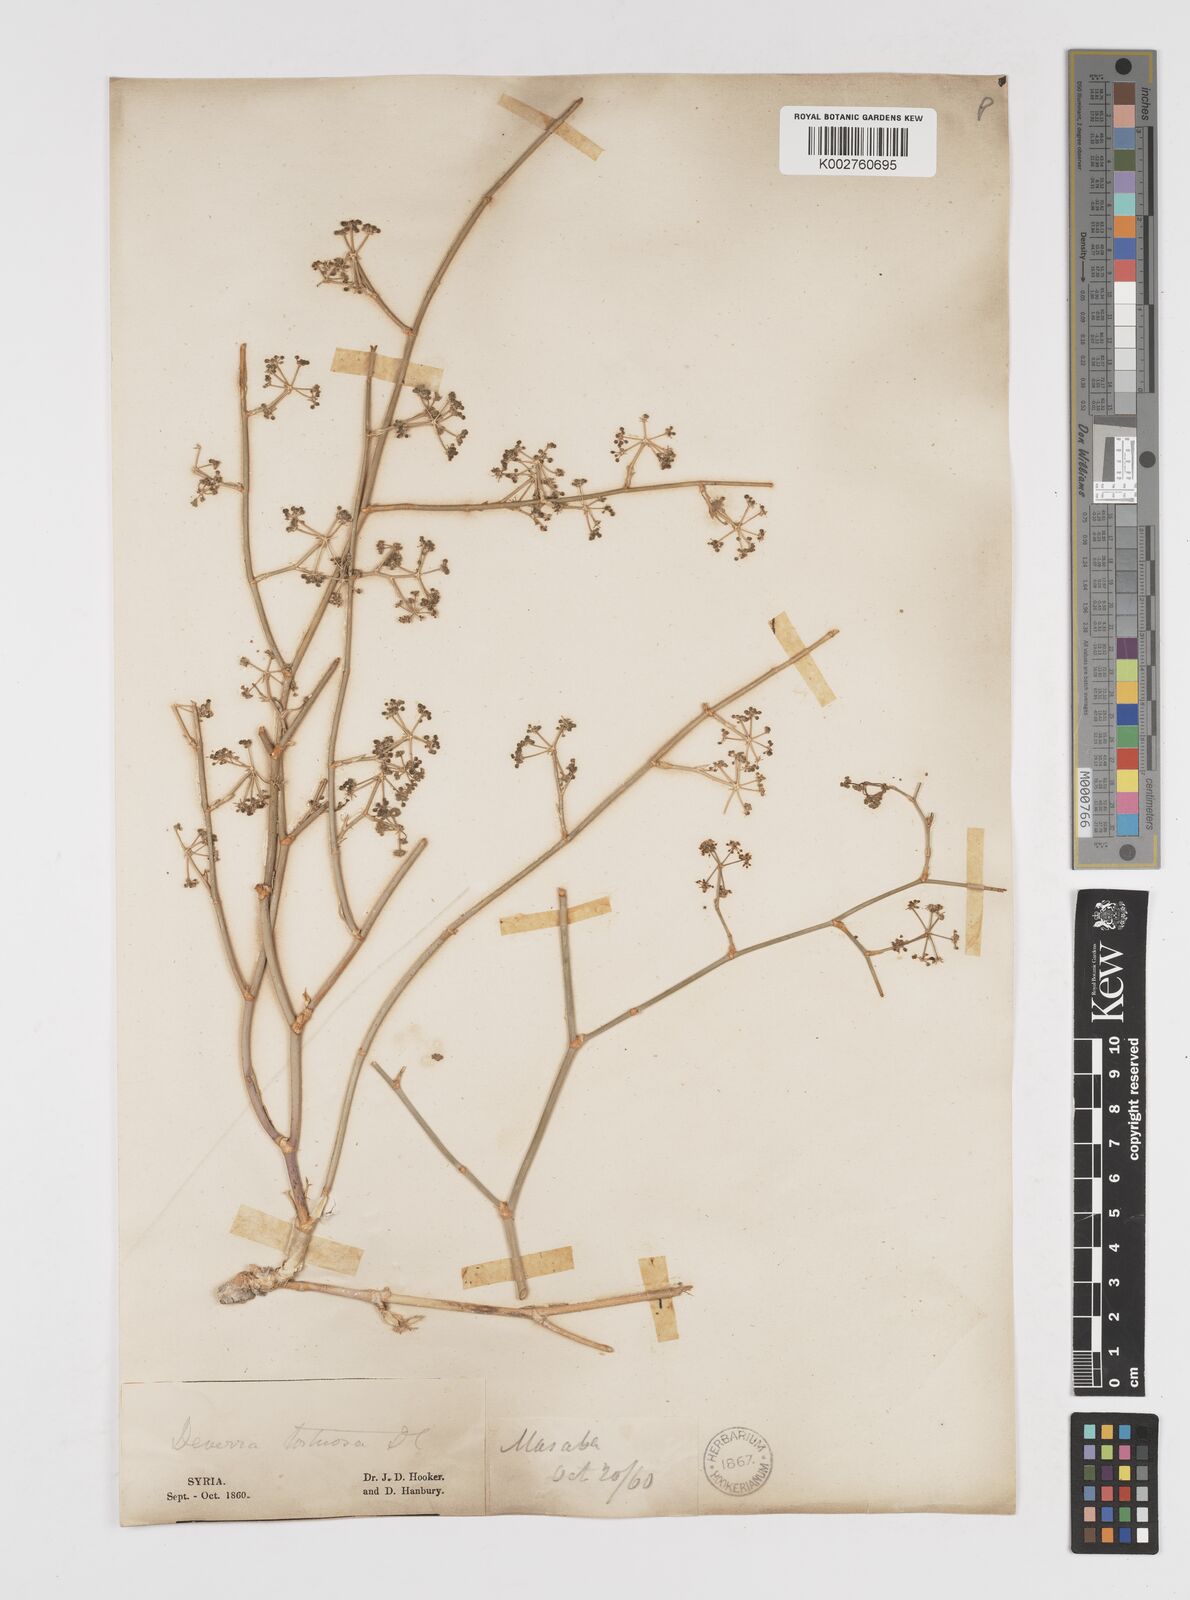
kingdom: Plantae
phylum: Tracheophyta
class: Magnoliopsida
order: Apiales
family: Apiaceae
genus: Deverra
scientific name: Deverra tortuosa
